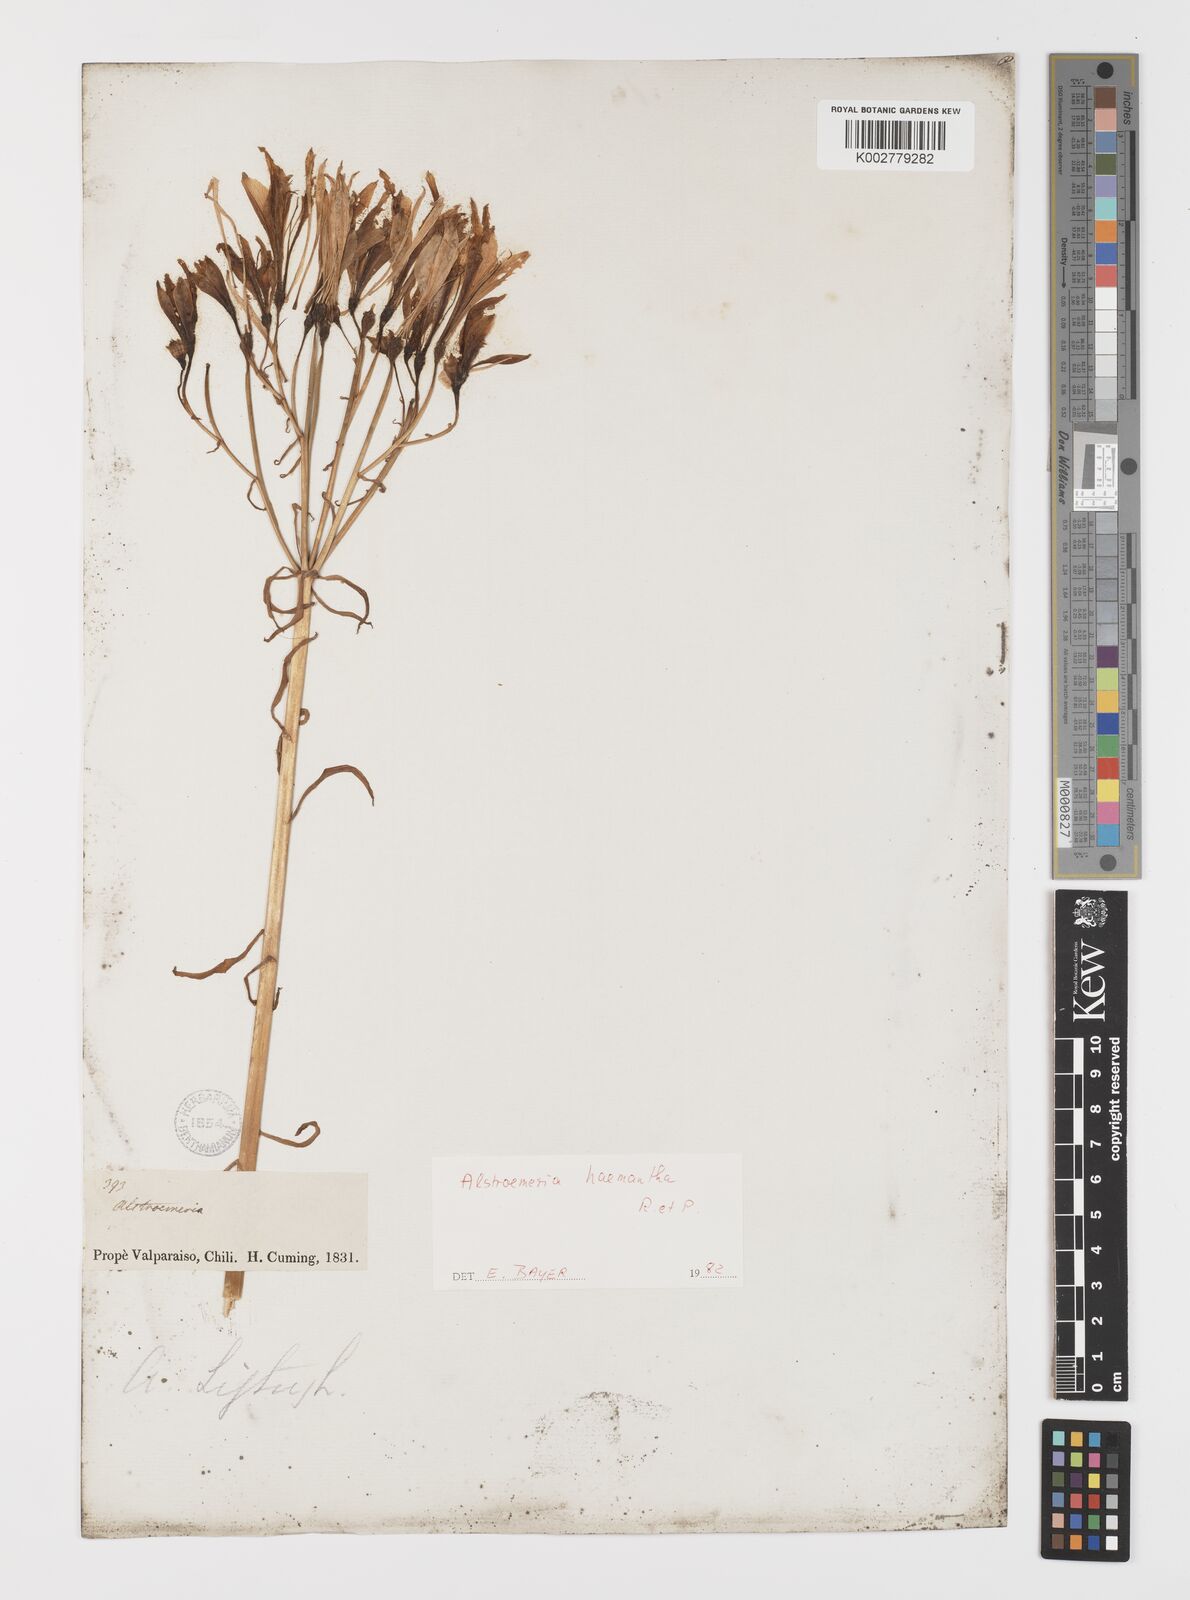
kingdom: Plantae
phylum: Tracheophyta
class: Liliopsida
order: Liliales
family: Alstroemeriaceae
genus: Alstroemeria
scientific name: Alstroemeria ligtu
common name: St. martin's-flower
